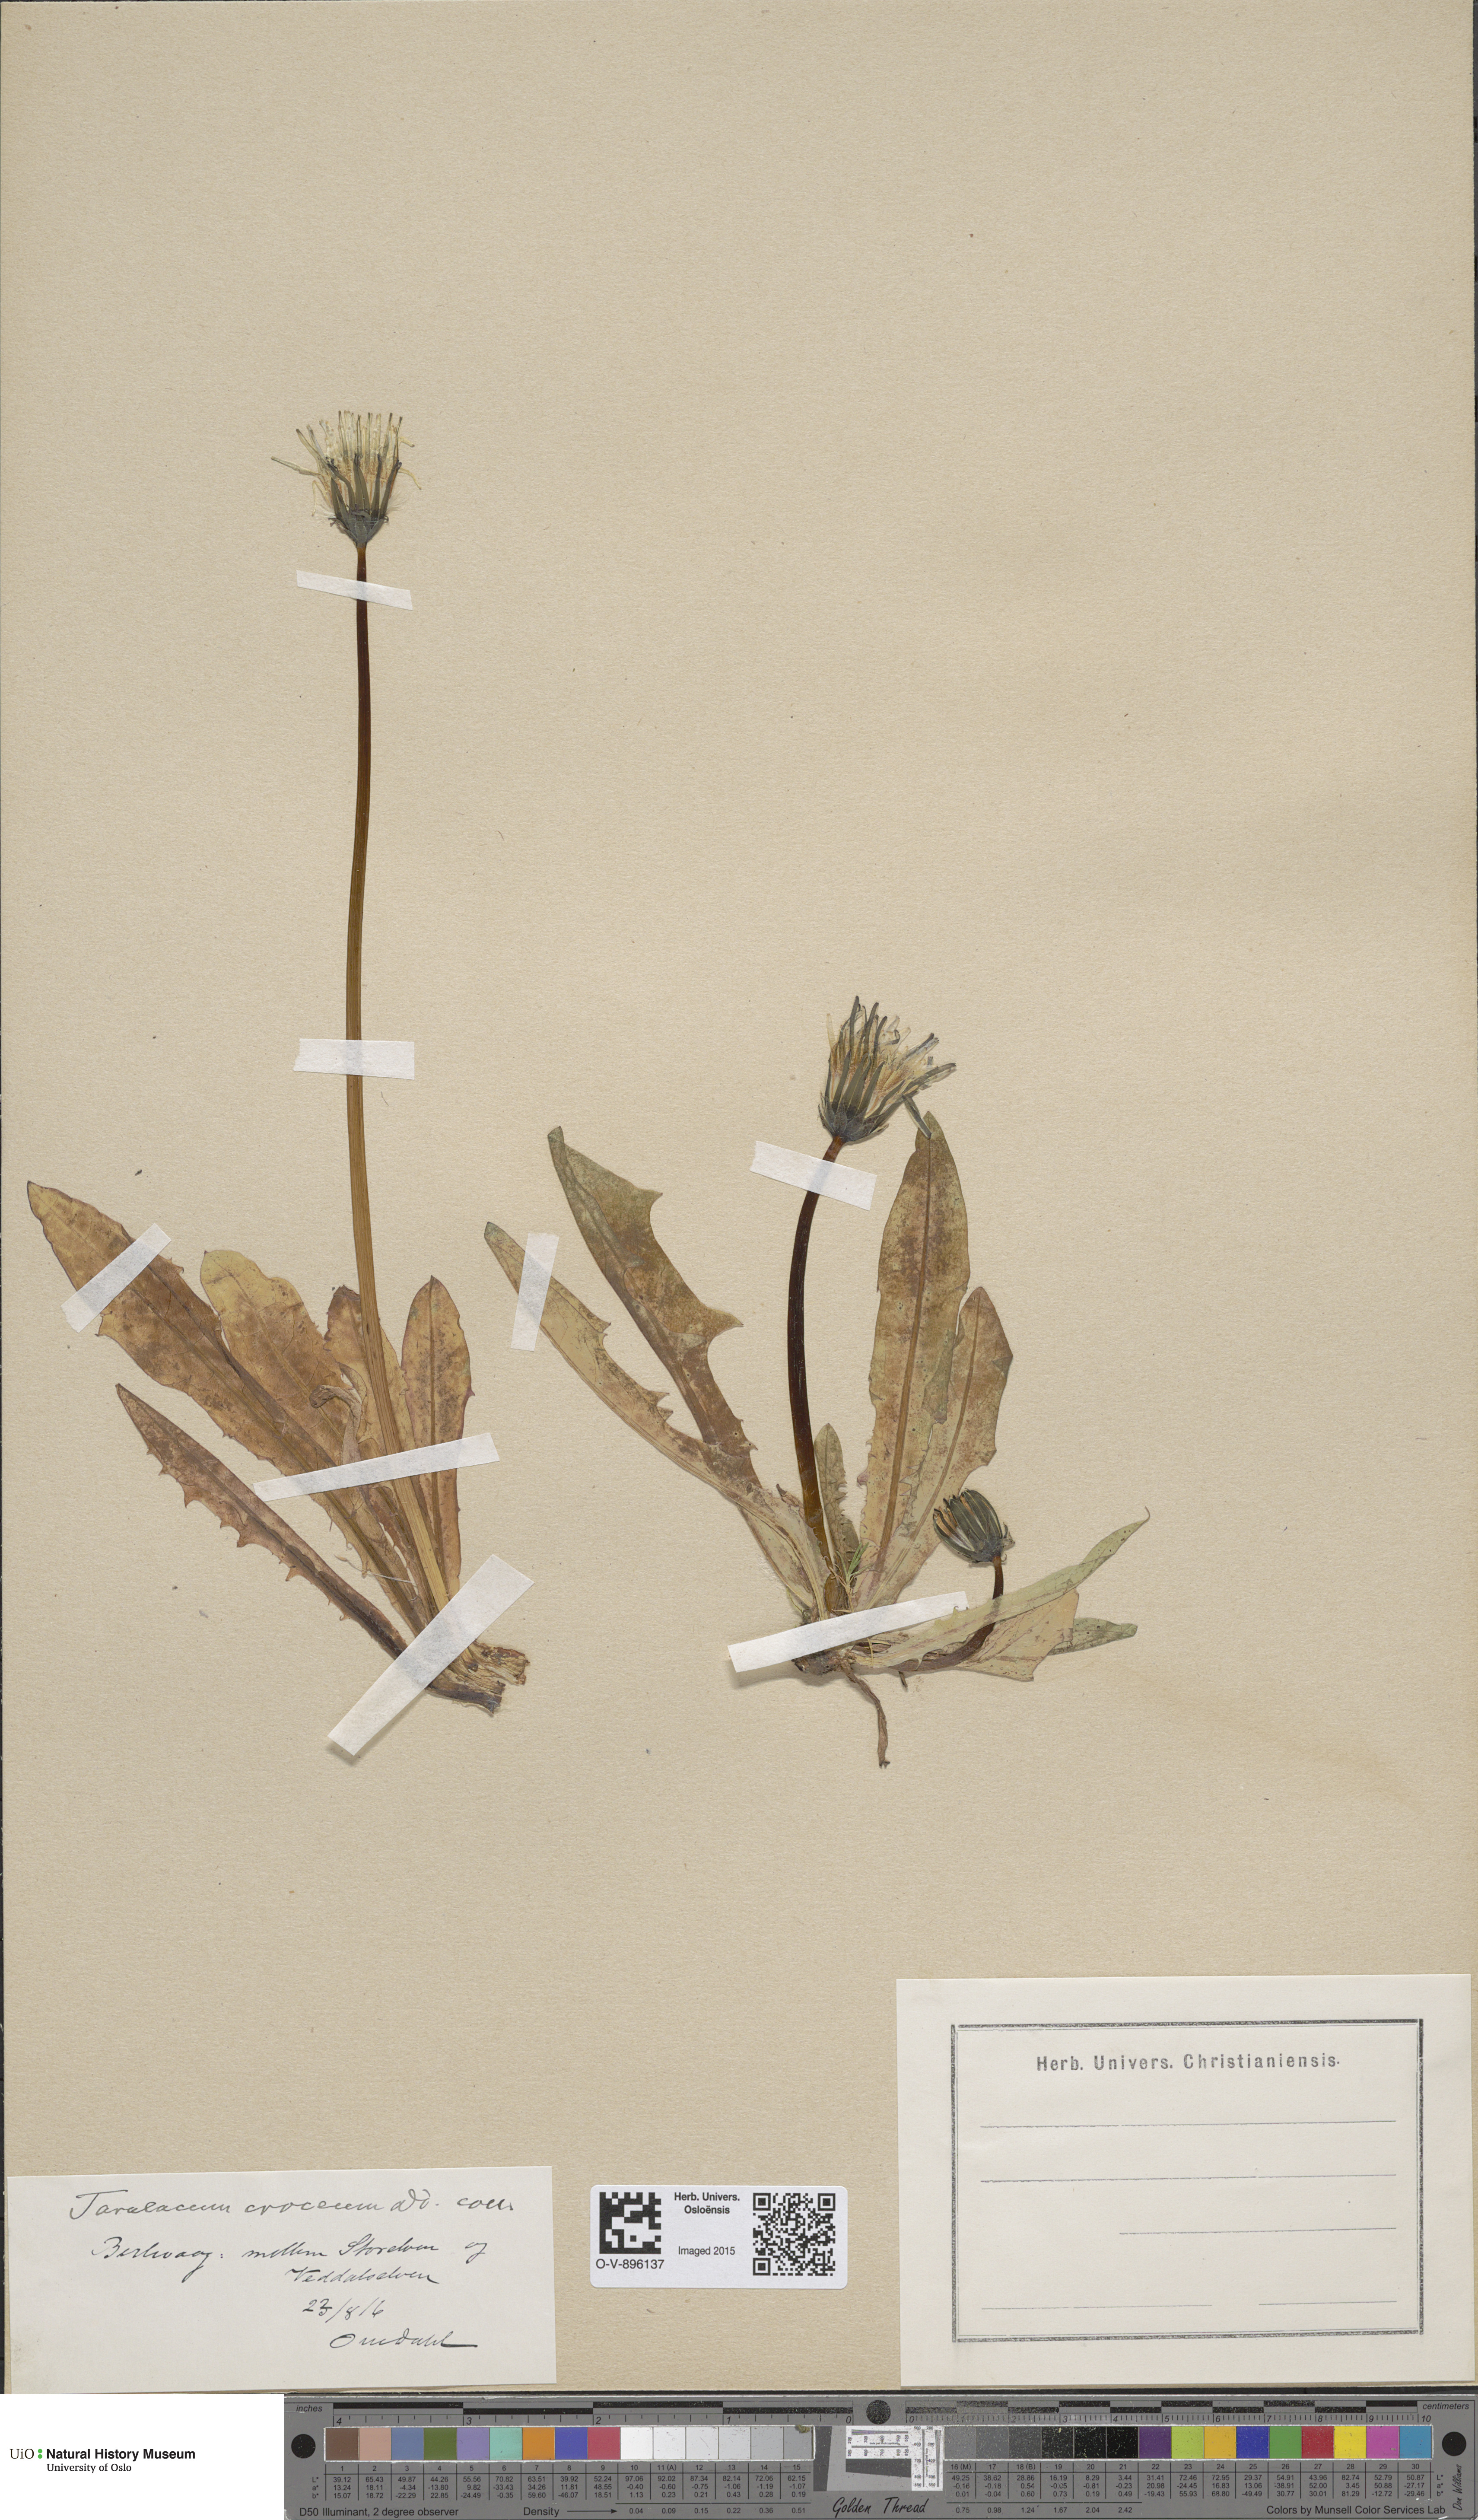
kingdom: Plantae
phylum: Tracheophyta
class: Magnoliopsida
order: Asterales
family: Asteraceae
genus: Taraxacum
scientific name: Taraxacum croceum
